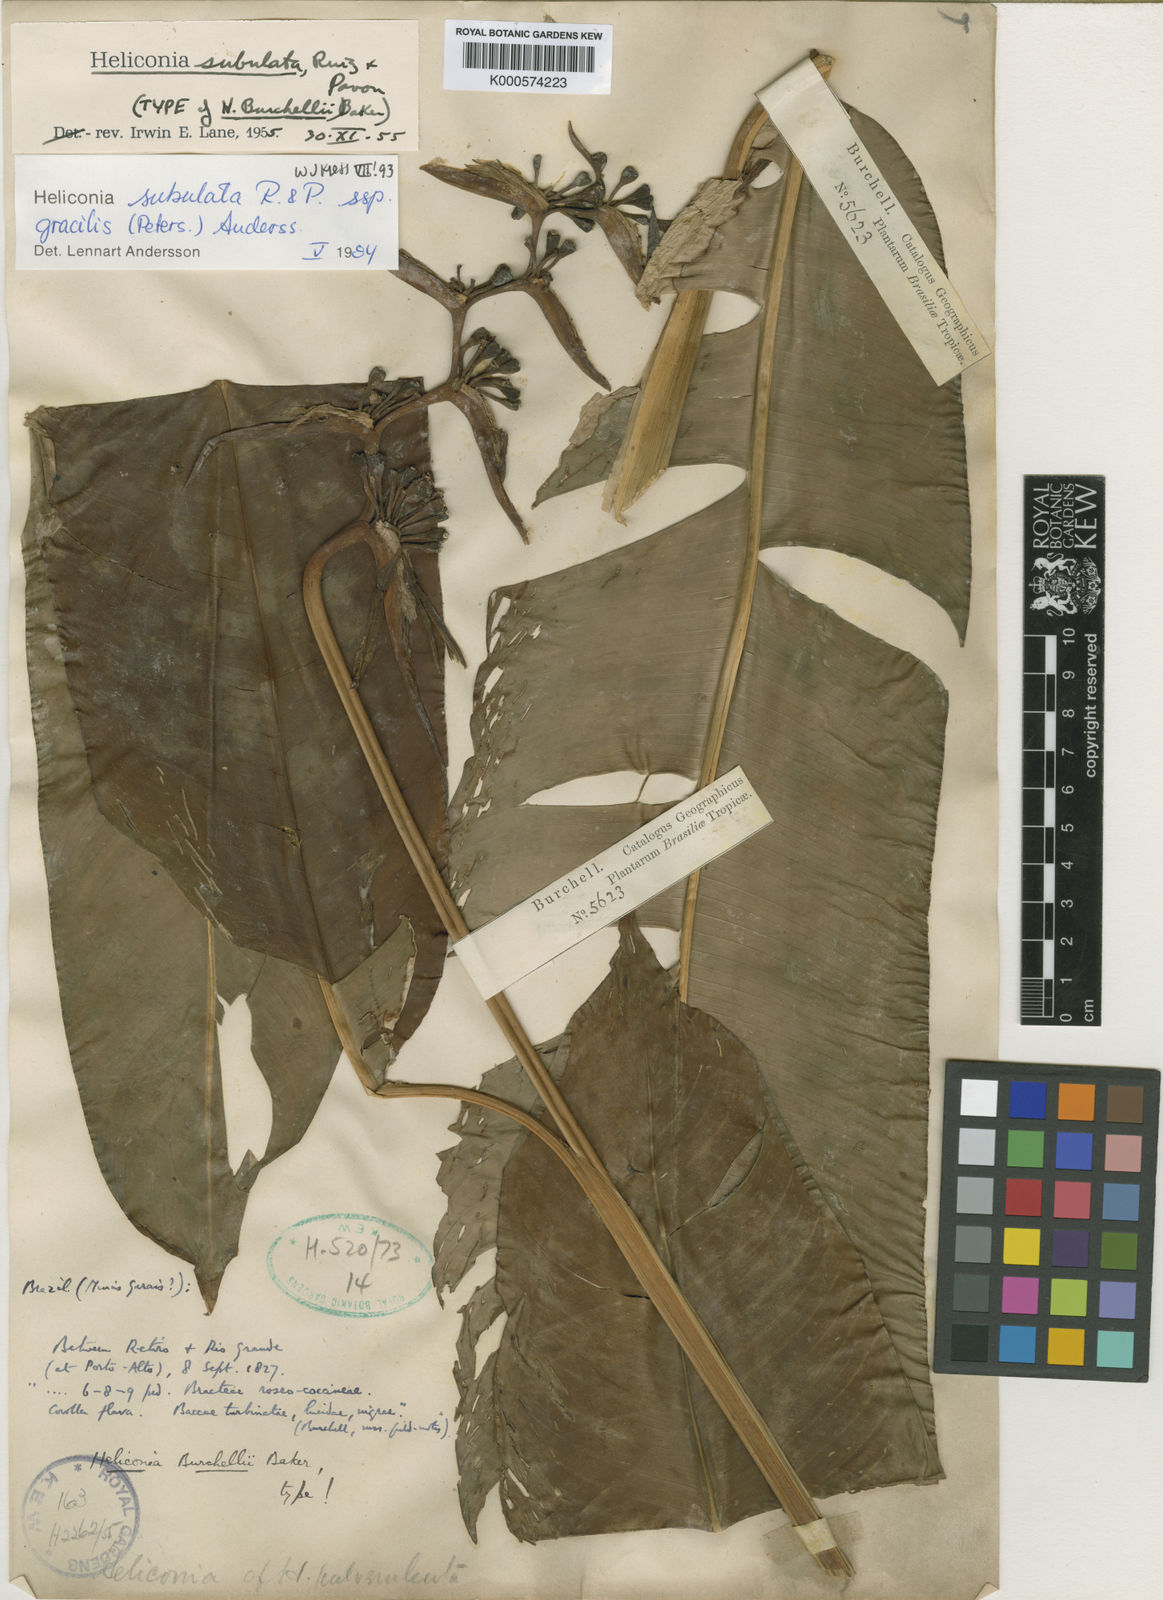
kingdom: Plantae
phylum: Tracheophyta
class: Liliopsida
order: Zingiberales
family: Heliconiaceae
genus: Heliconia
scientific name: Heliconia subulata
